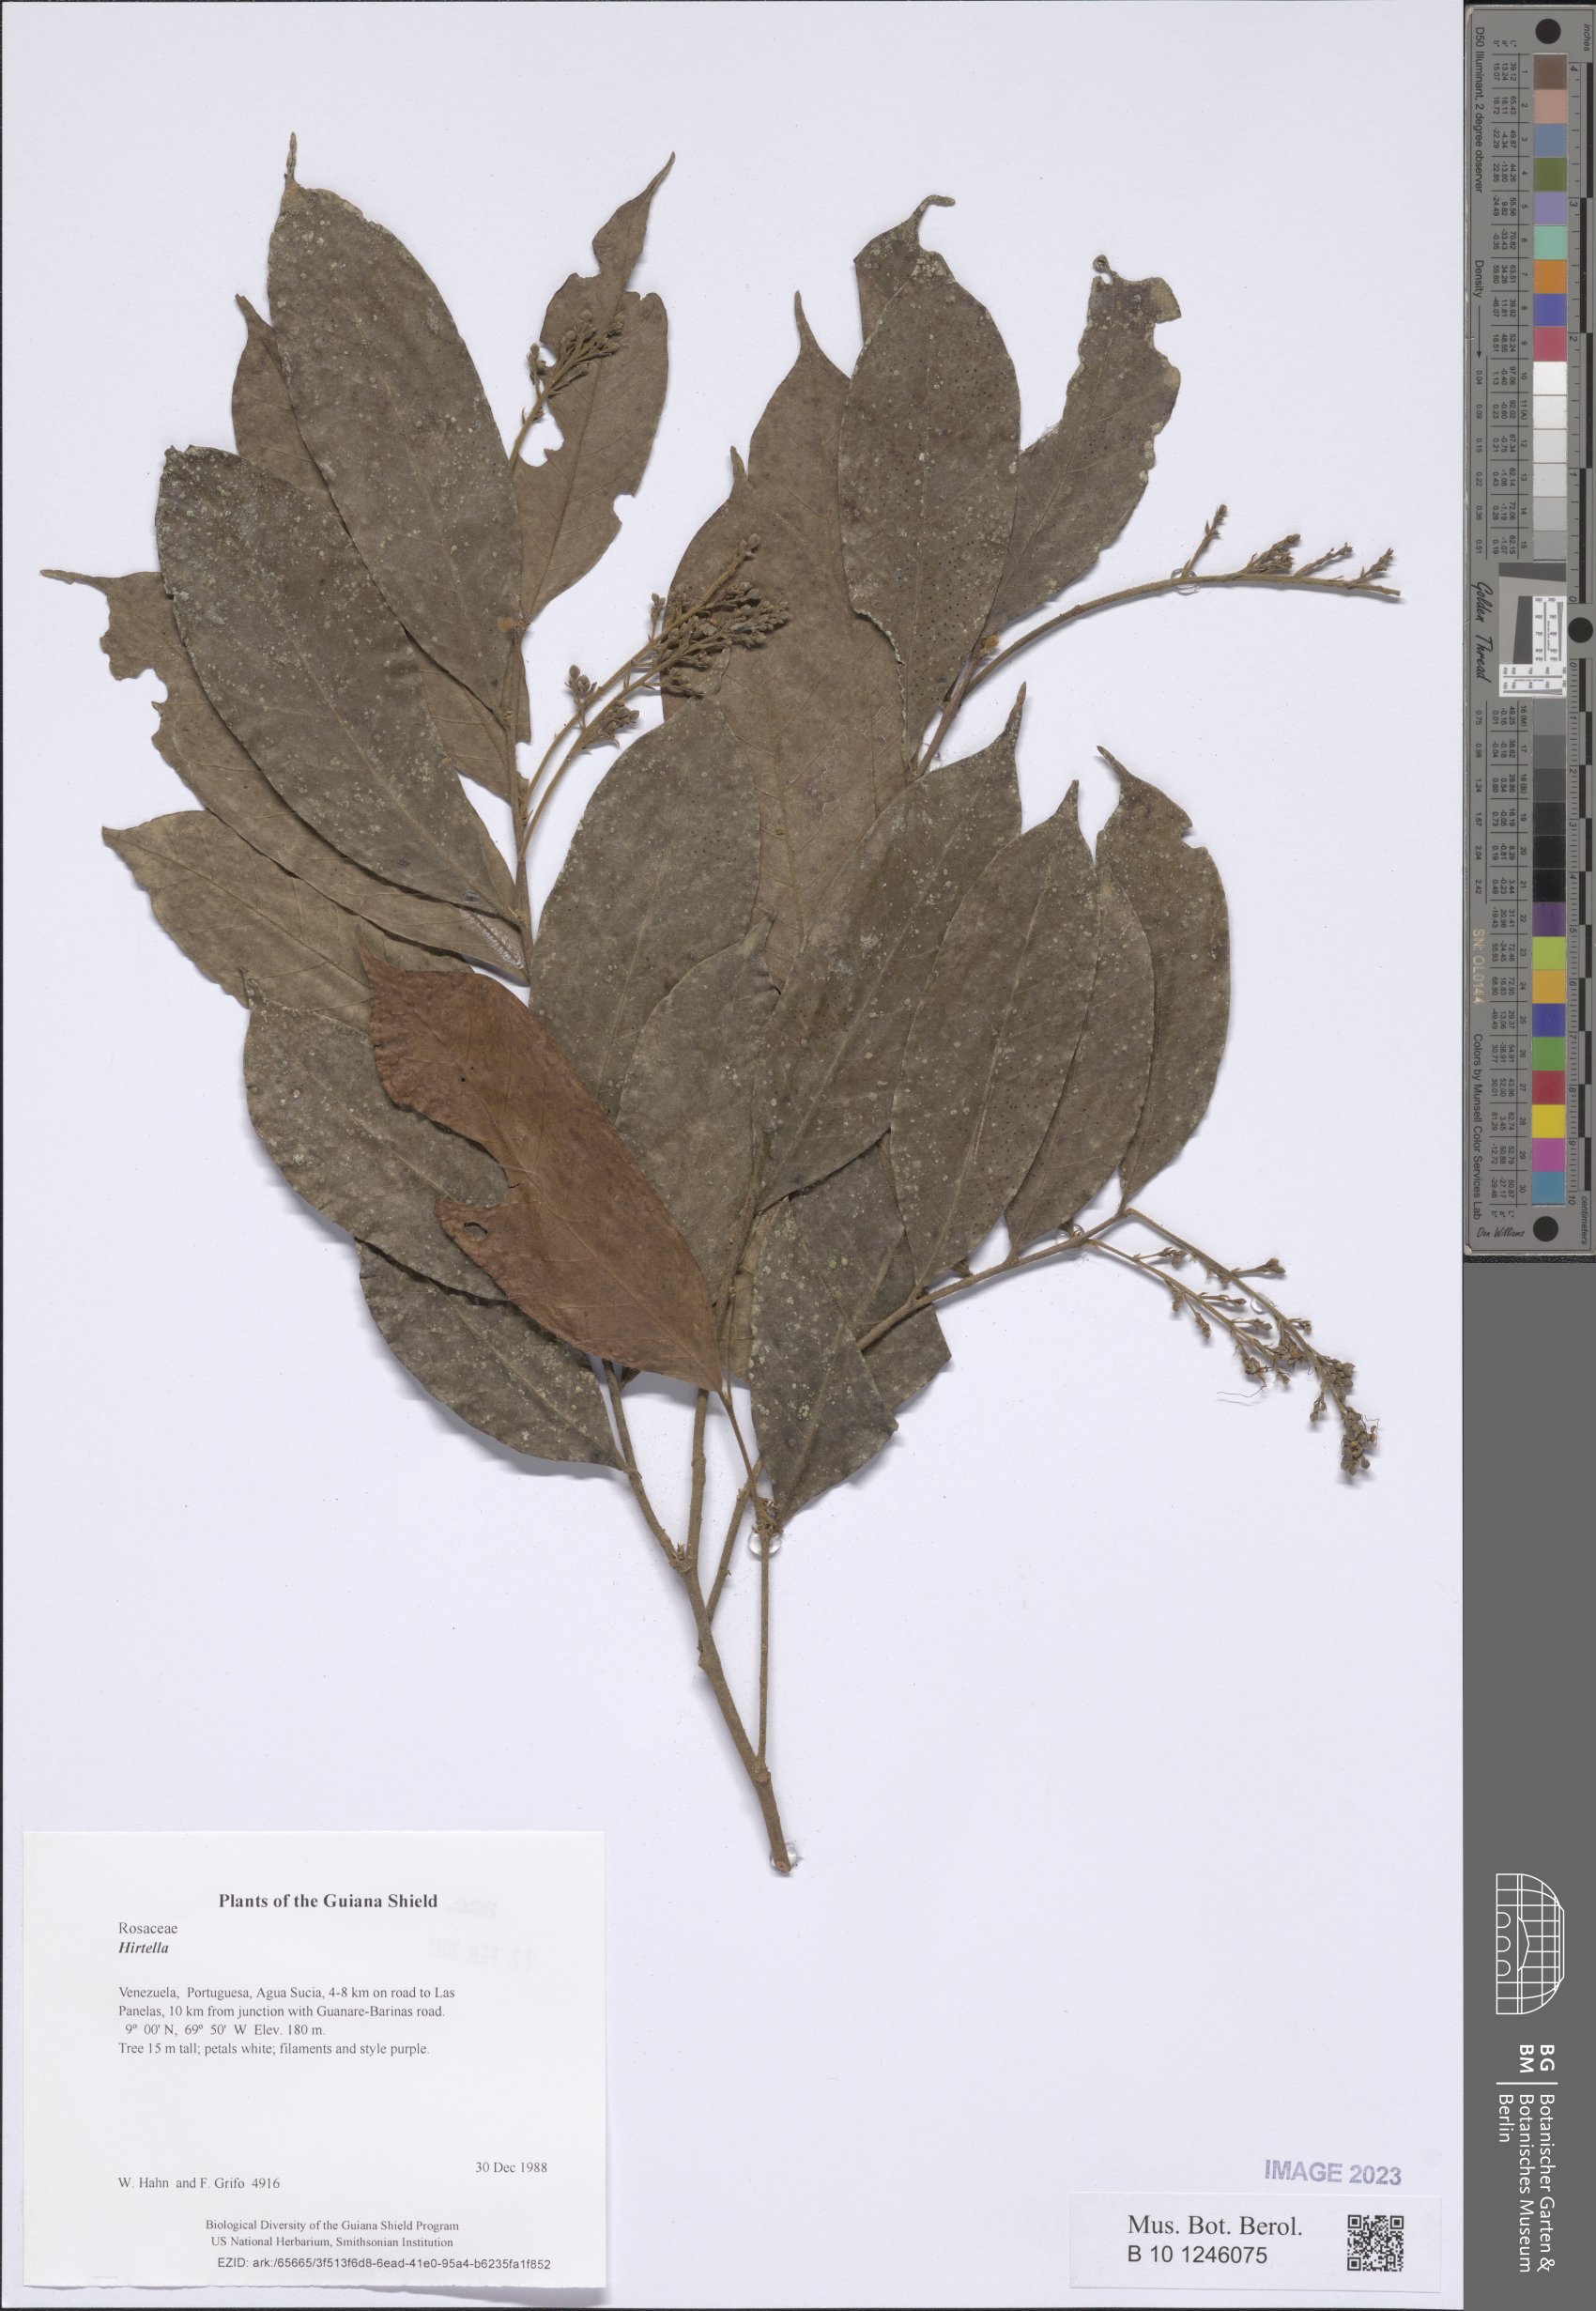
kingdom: Plantae
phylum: Tracheophyta
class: Magnoliopsida
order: Rosales
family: Rosaceae
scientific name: Rosaceae
